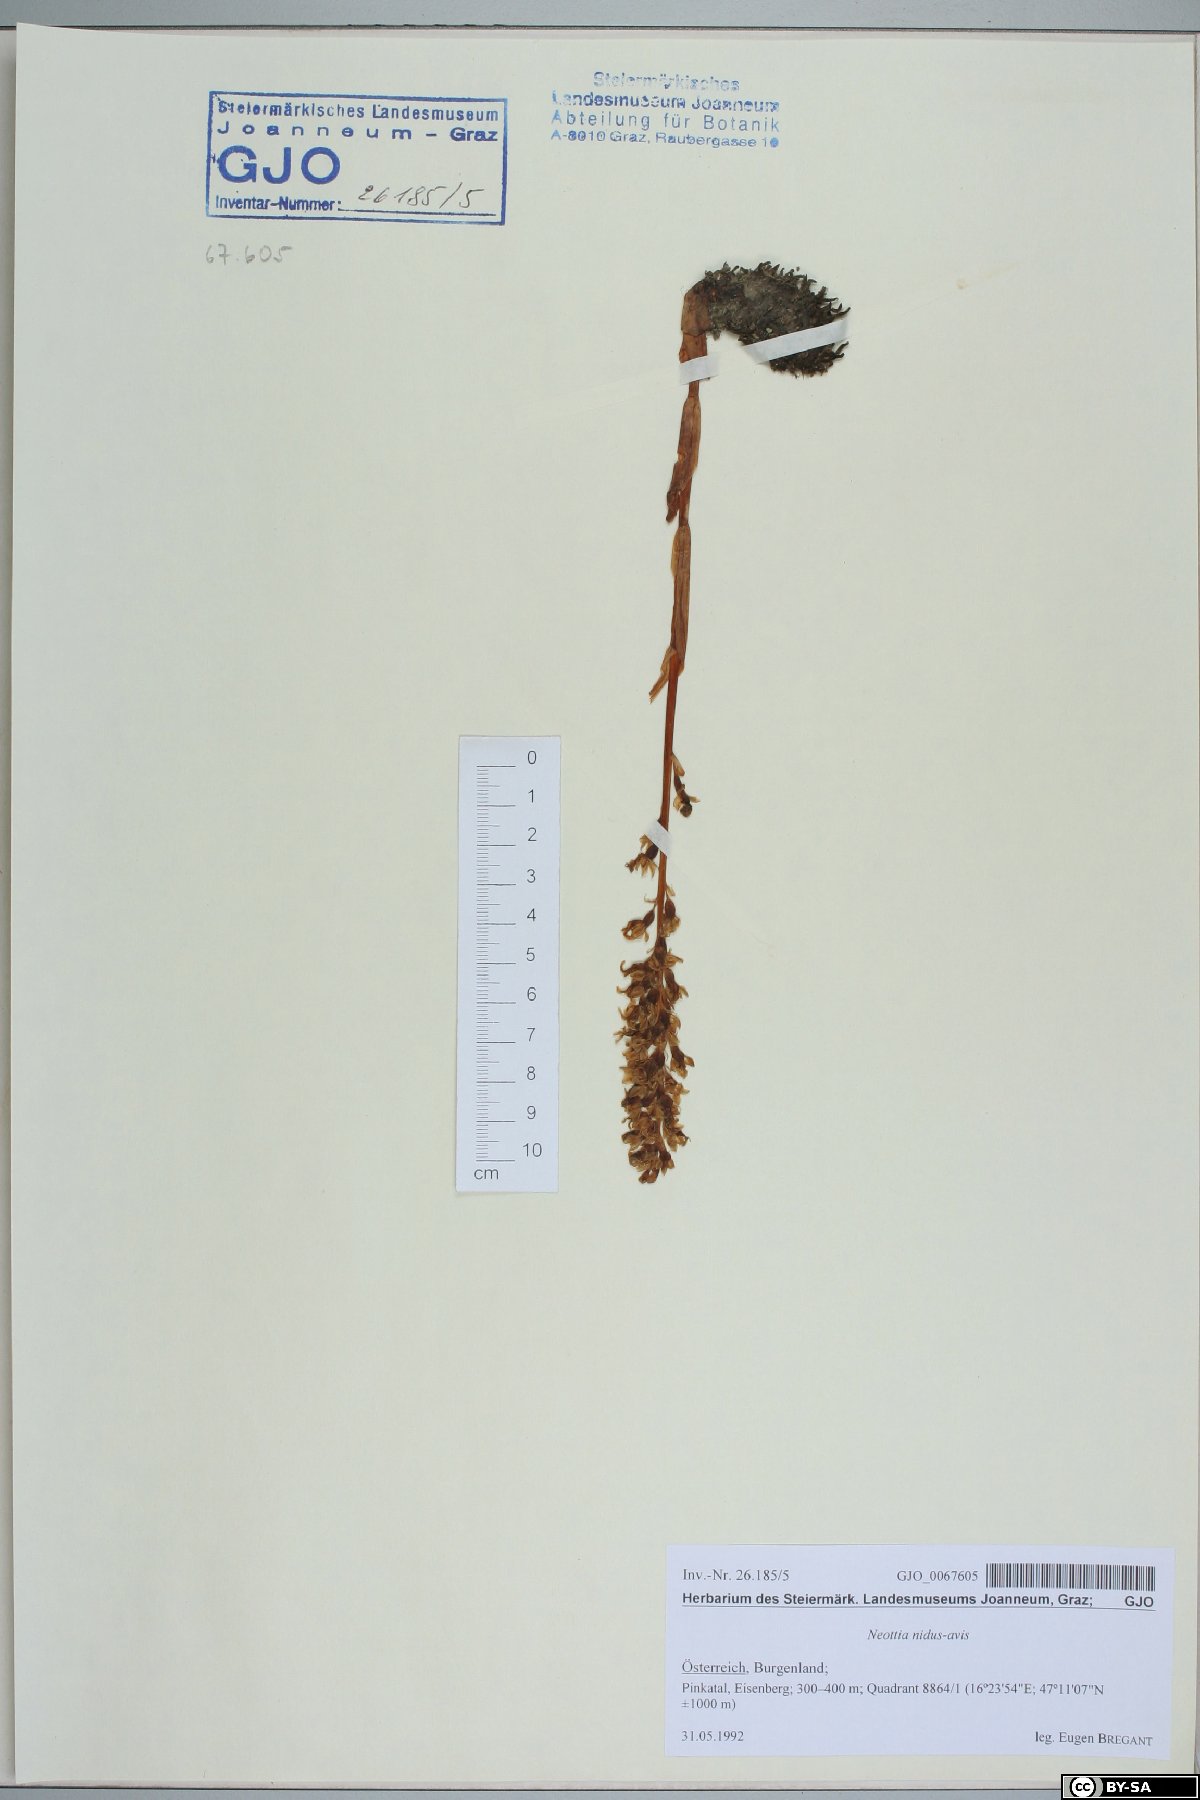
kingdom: Plantae
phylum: Tracheophyta
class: Liliopsida
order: Asparagales
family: Orchidaceae
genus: Neottia
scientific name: Neottia nidus-avis
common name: Bird's-nest orchid
